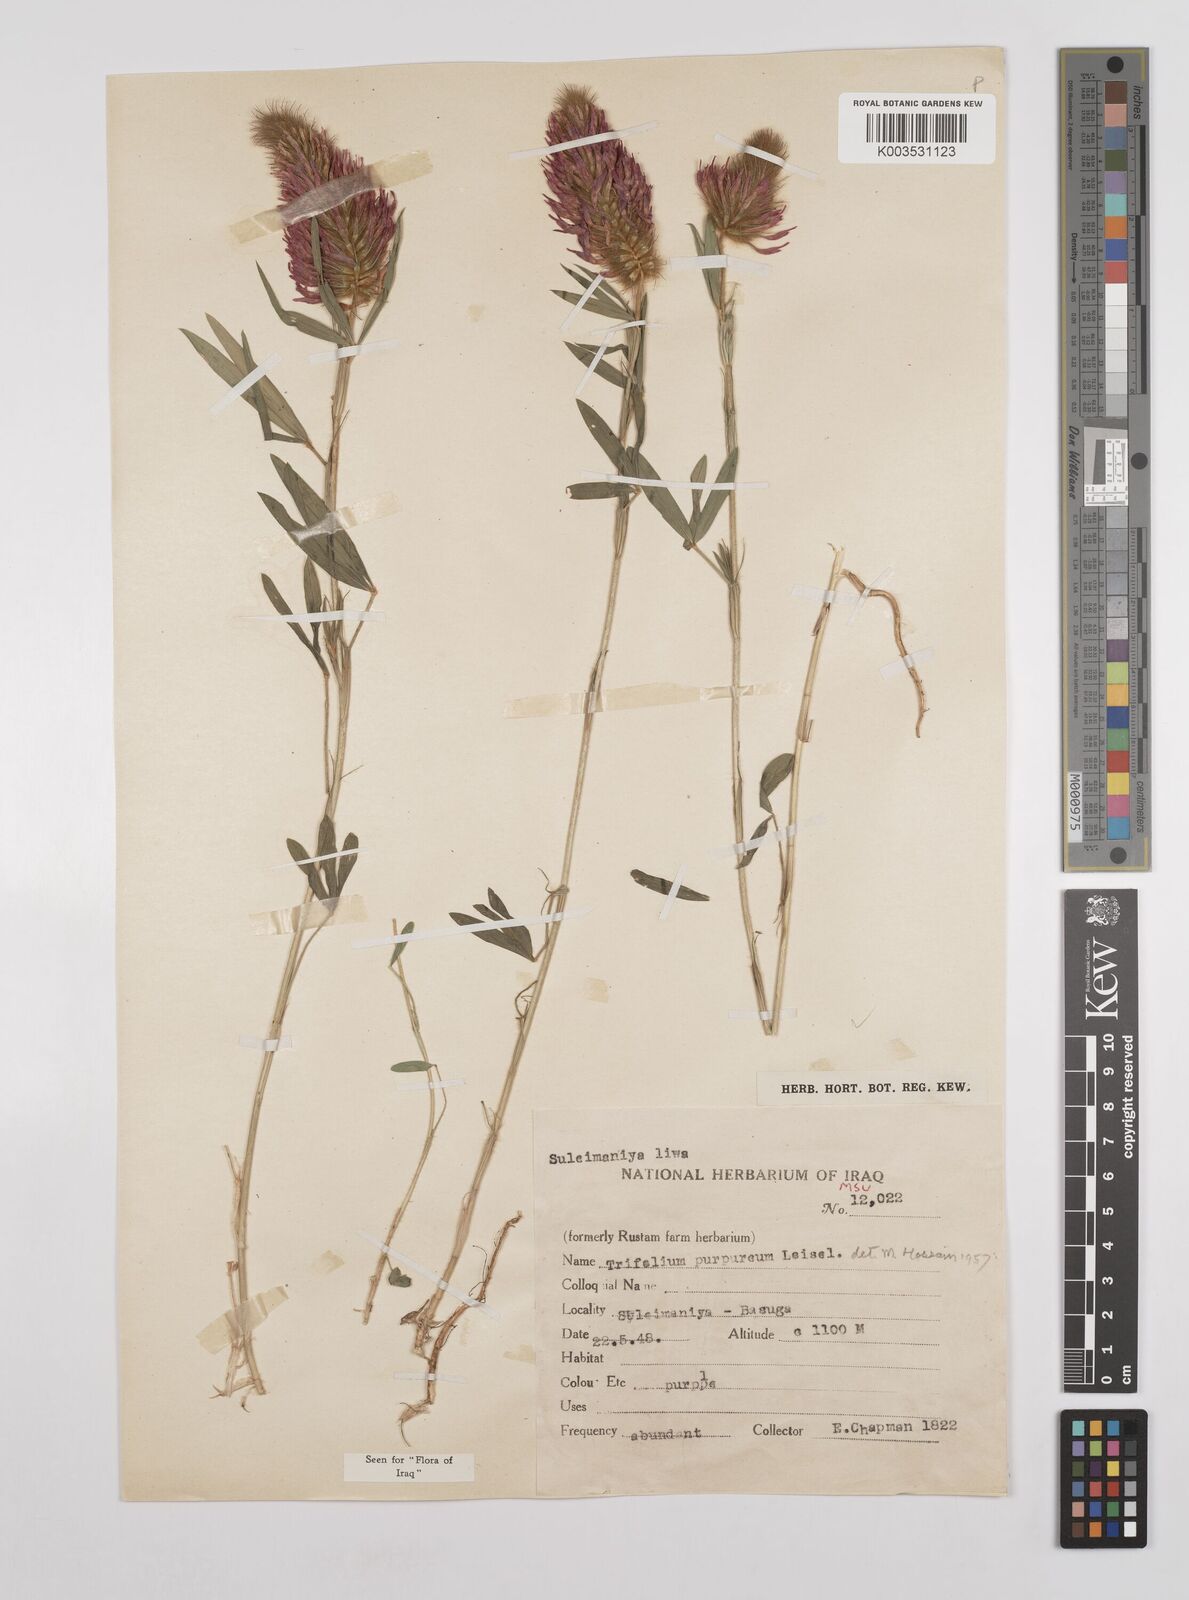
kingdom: Plantae
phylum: Tracheophyta
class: Magnoliopsida
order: Fabales
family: Fabaceae
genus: Trifolium
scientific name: Trifolium purpureum
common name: Purple clover
